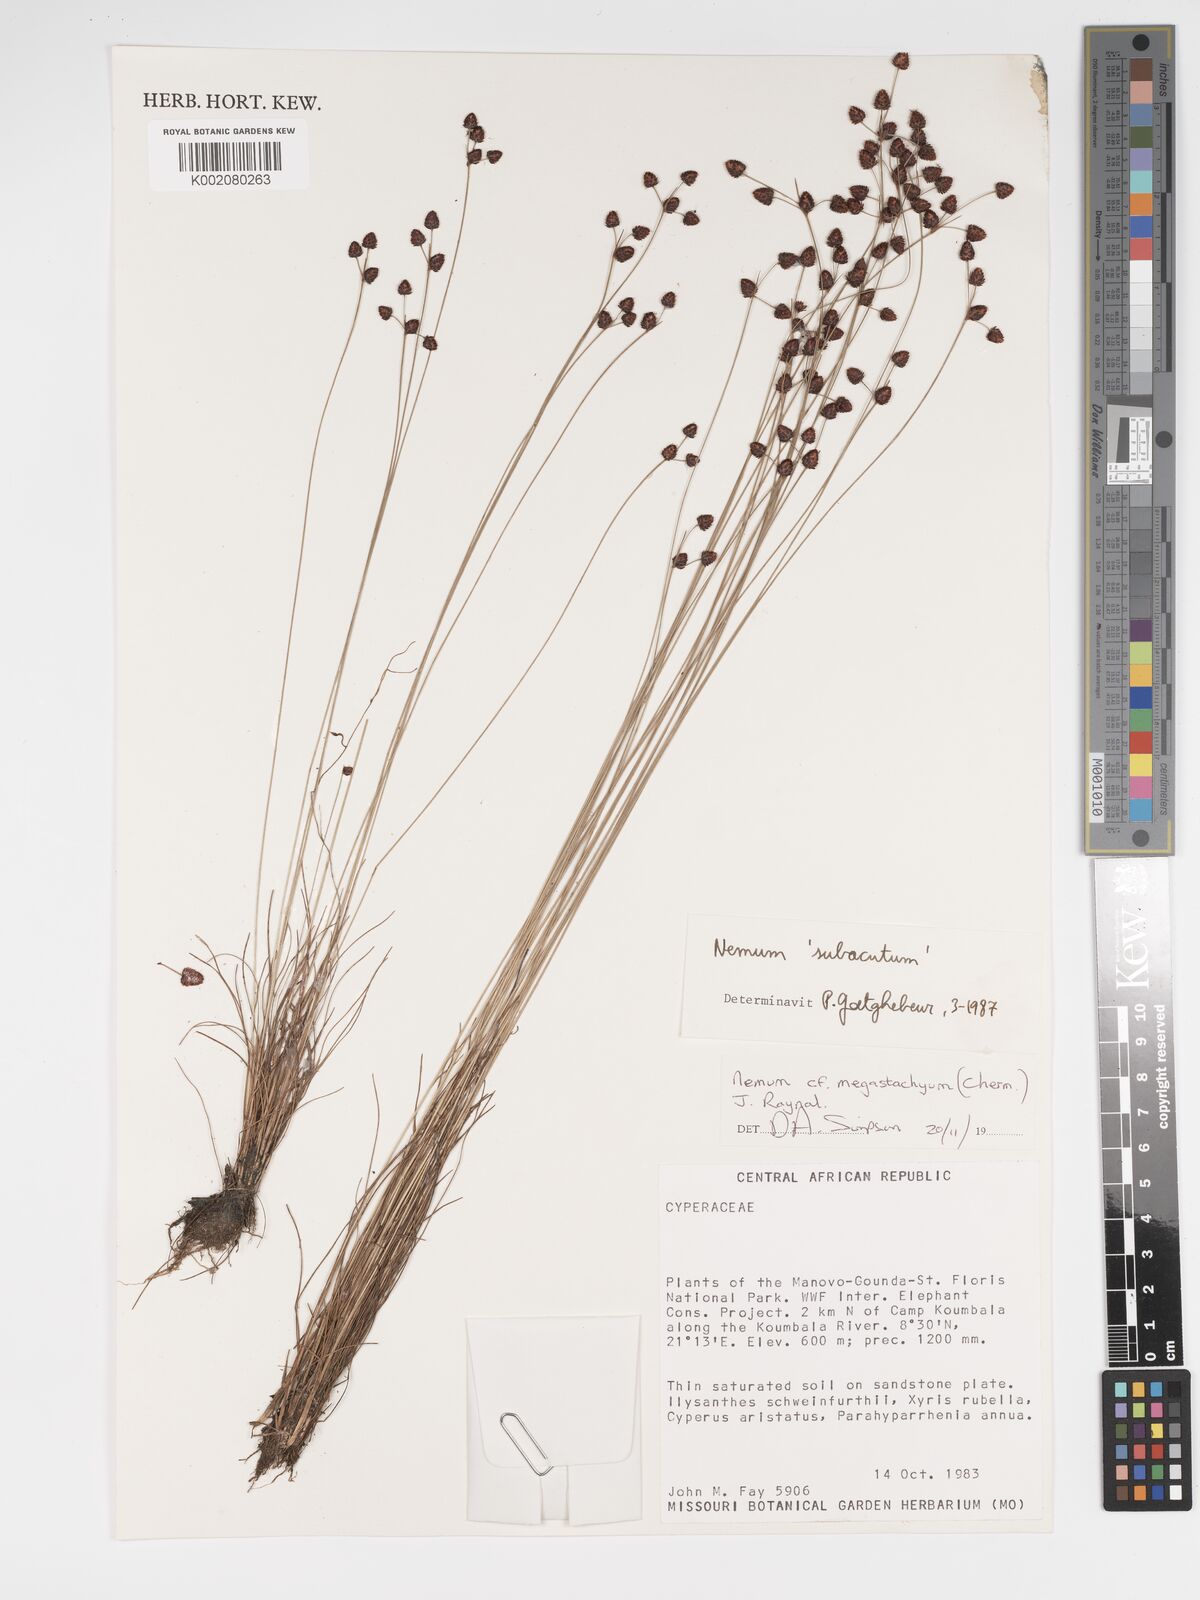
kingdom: Plantae
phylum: Tracheophyta
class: Liliopsida
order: Poales
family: Cyperaceae
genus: Bulbostylis
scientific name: Bulbostylis brunneoacuminata
